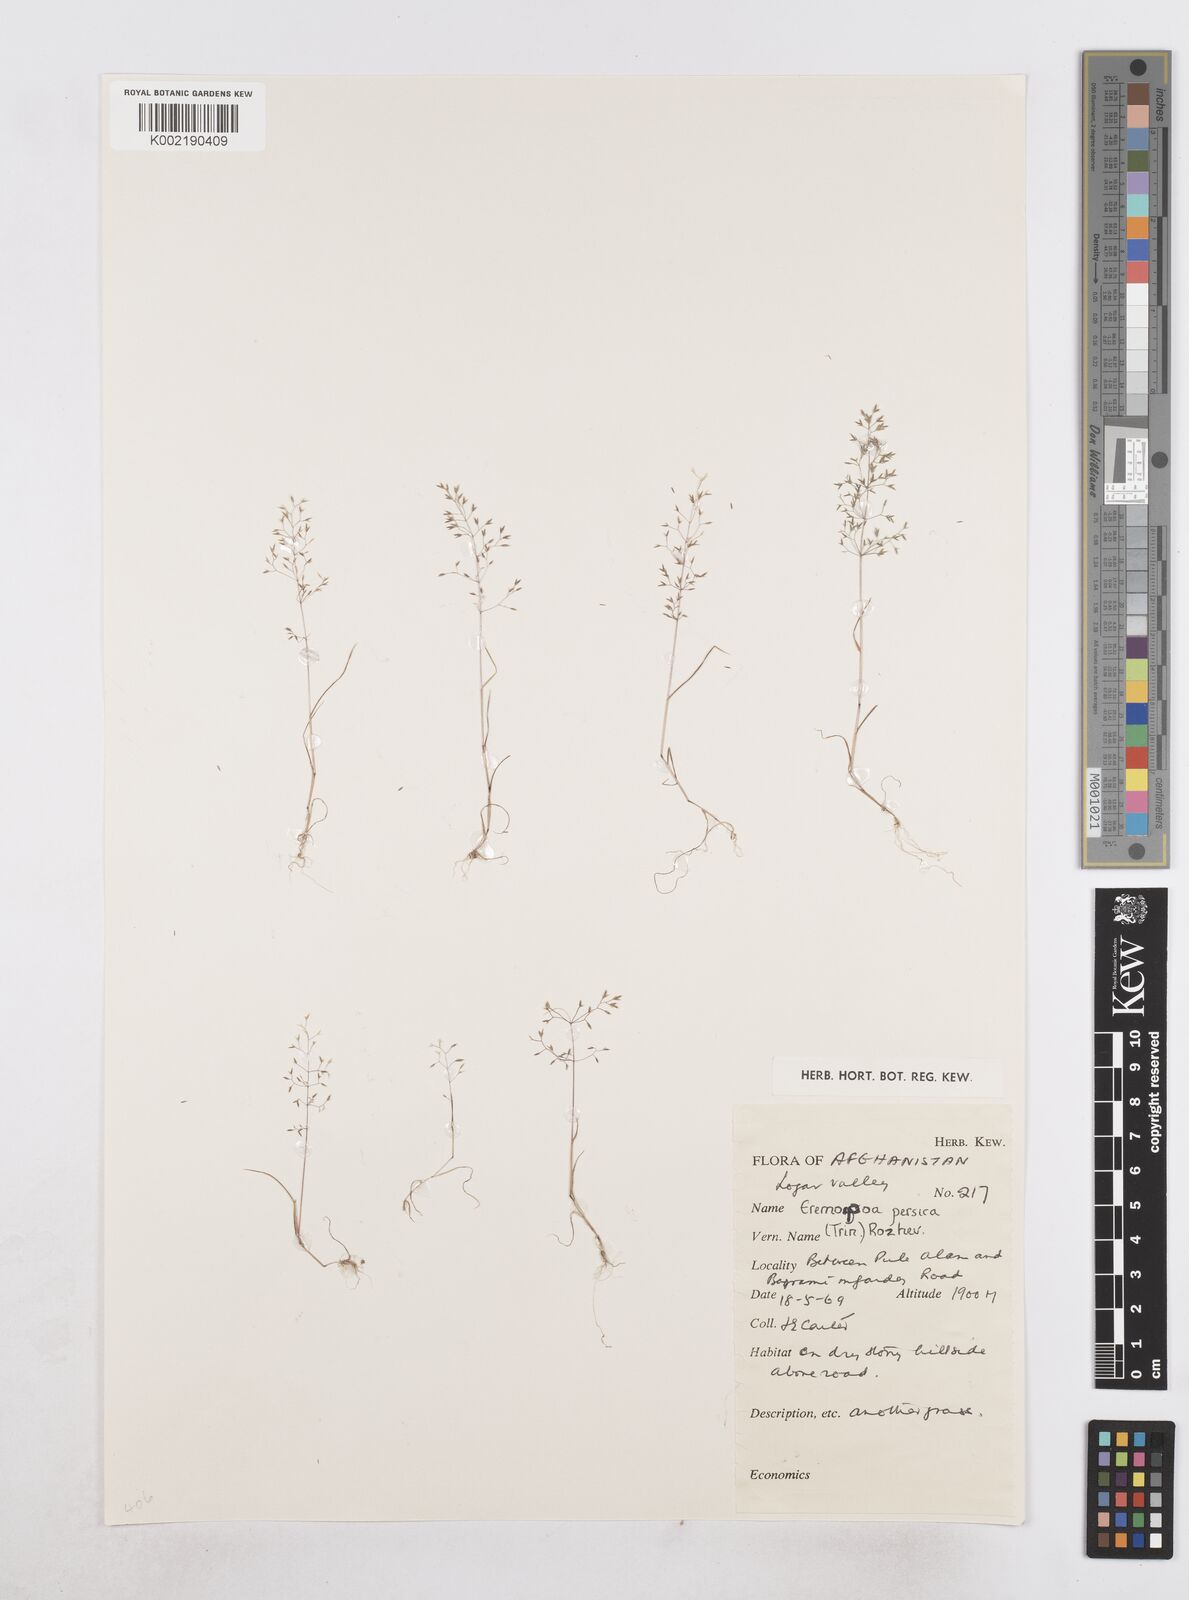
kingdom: Plantae
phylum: Tracheophyta
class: Liliopsida
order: Poales
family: Poaceae
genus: Poa
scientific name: Poa diaphora
